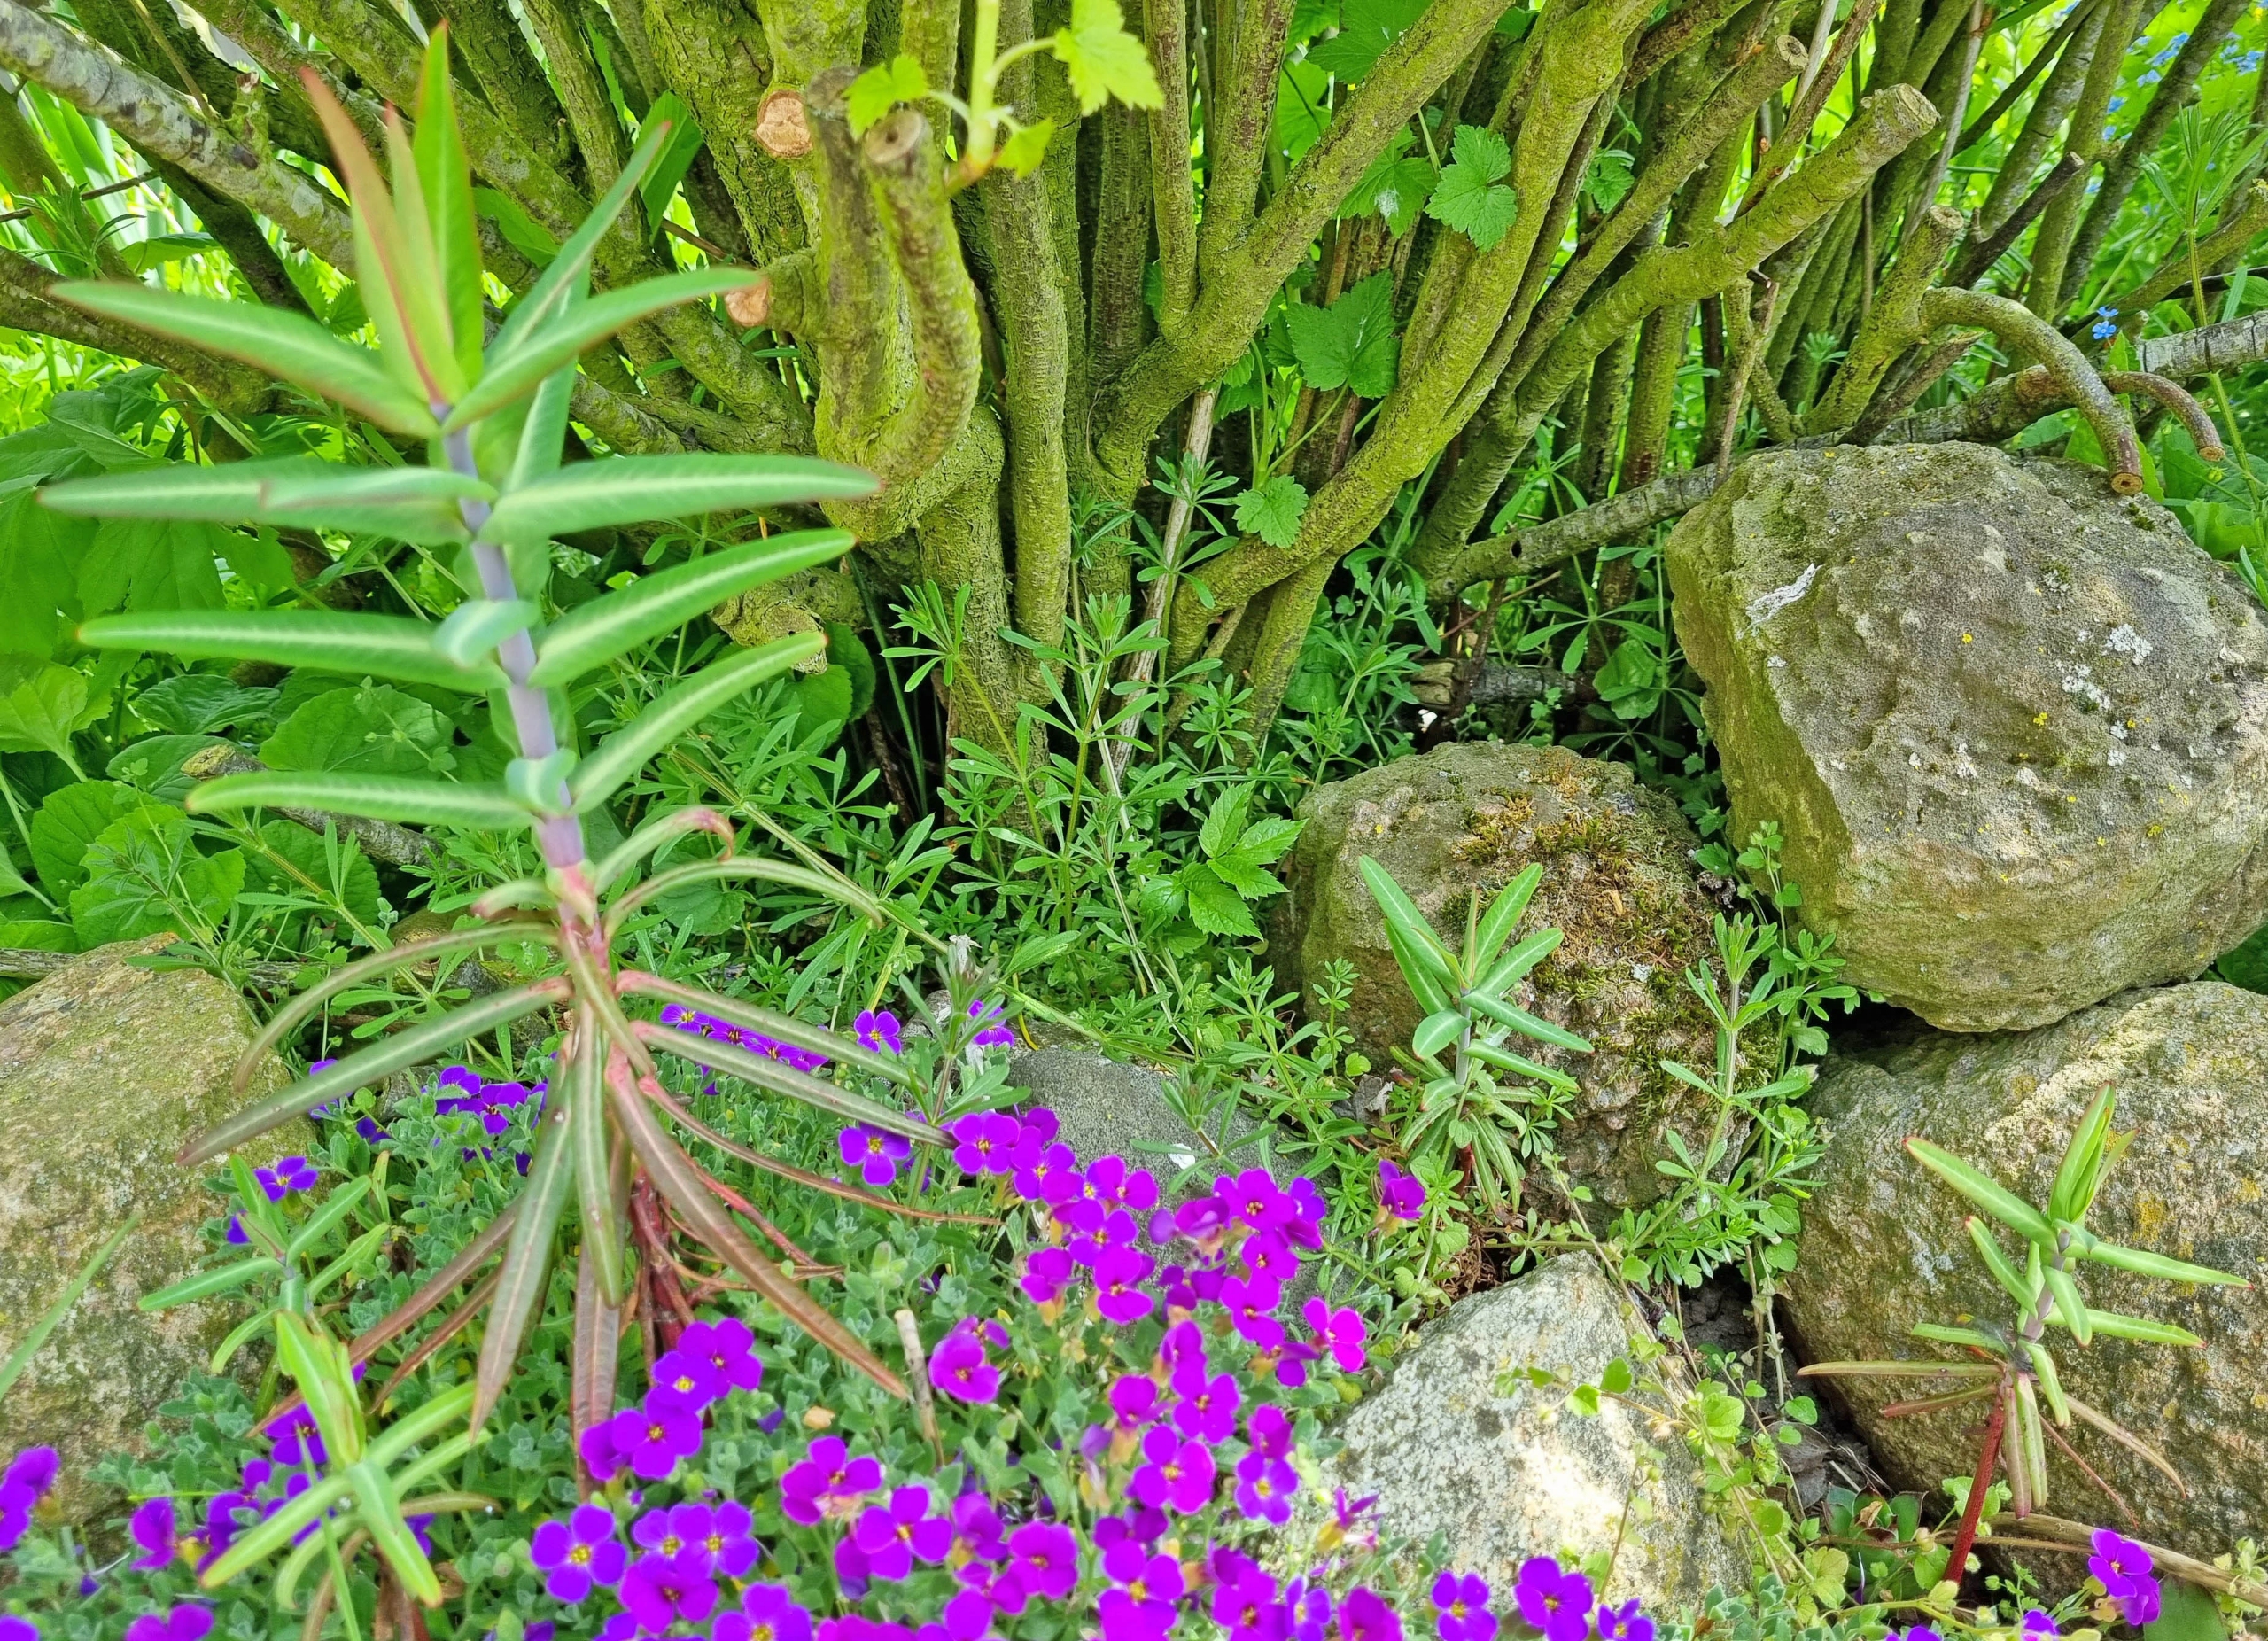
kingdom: Plantae
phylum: Tracheophyta
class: Magnoliopsida
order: Malpighiales
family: Euphorbiaceae
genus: Euphorbia
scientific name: Euphorbia lathyris
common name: Kors-vortemælk
